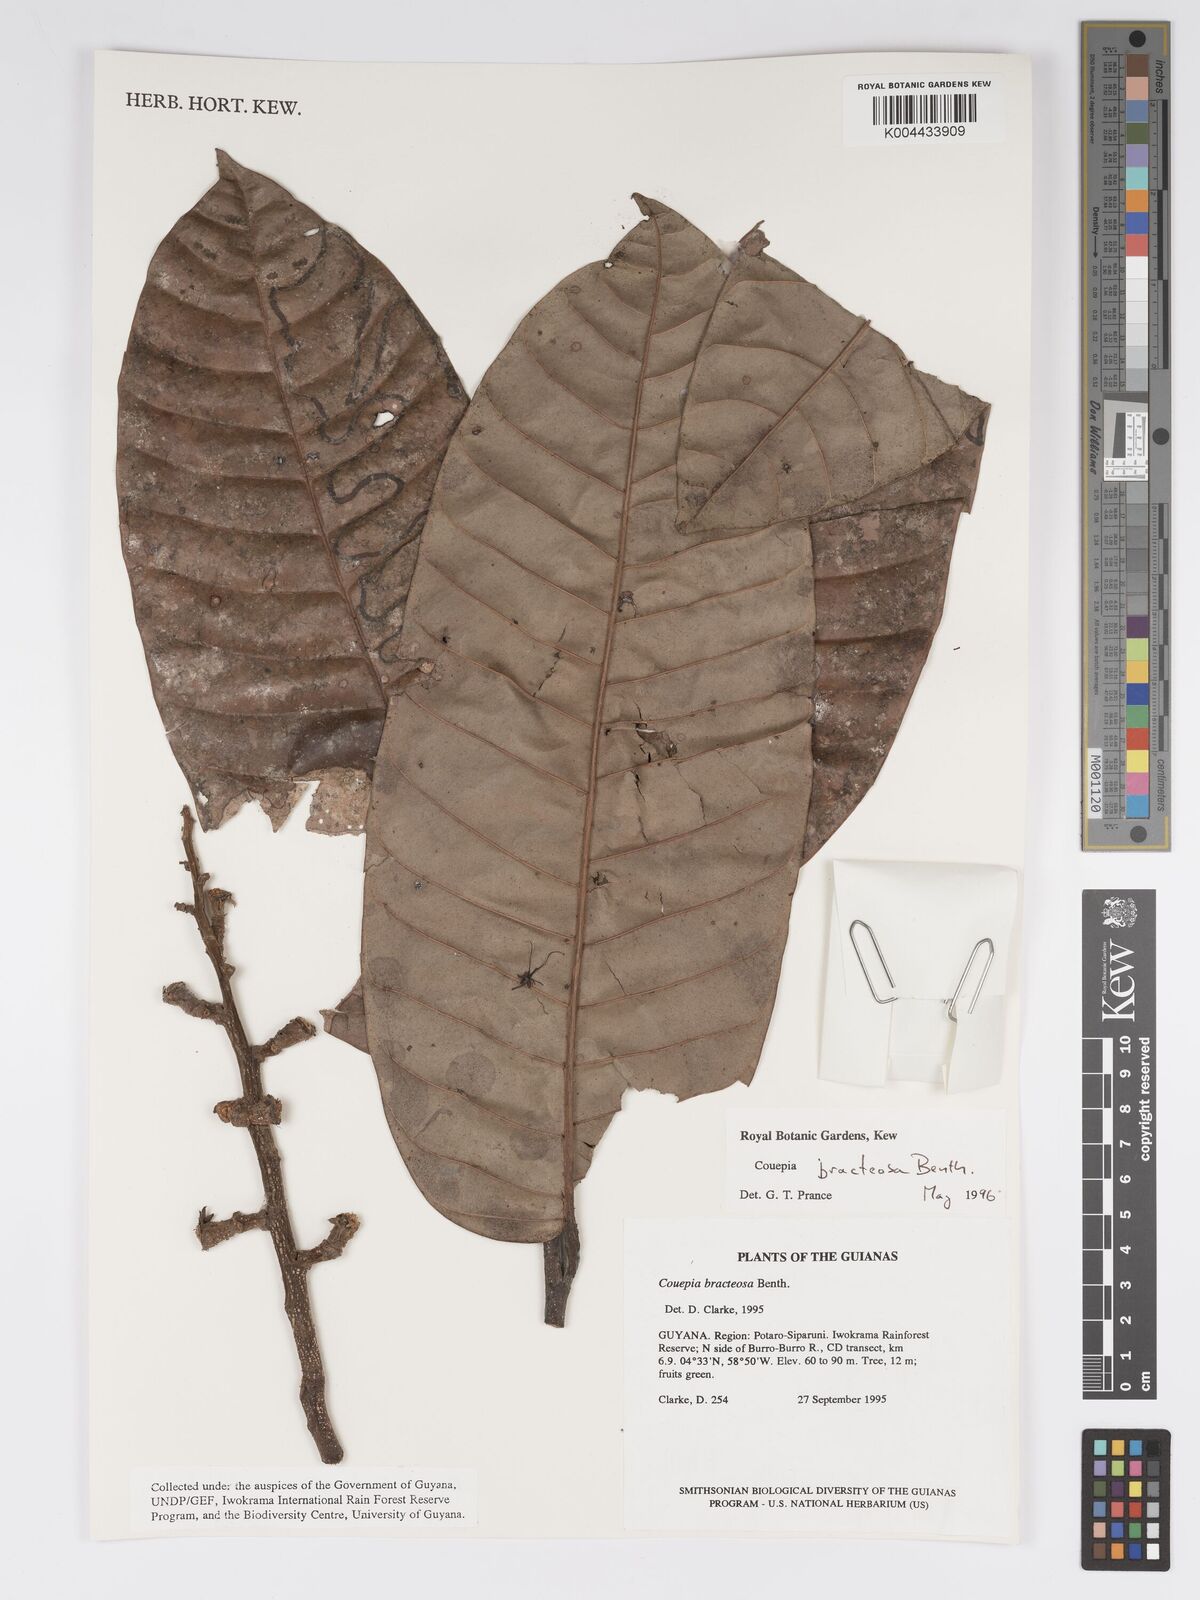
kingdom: Plantae
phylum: Tracheophyta
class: Magnoliopsida
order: Malpighiales
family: Chrysobalanaceae
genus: Couepia
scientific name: Couepia bracteosa
